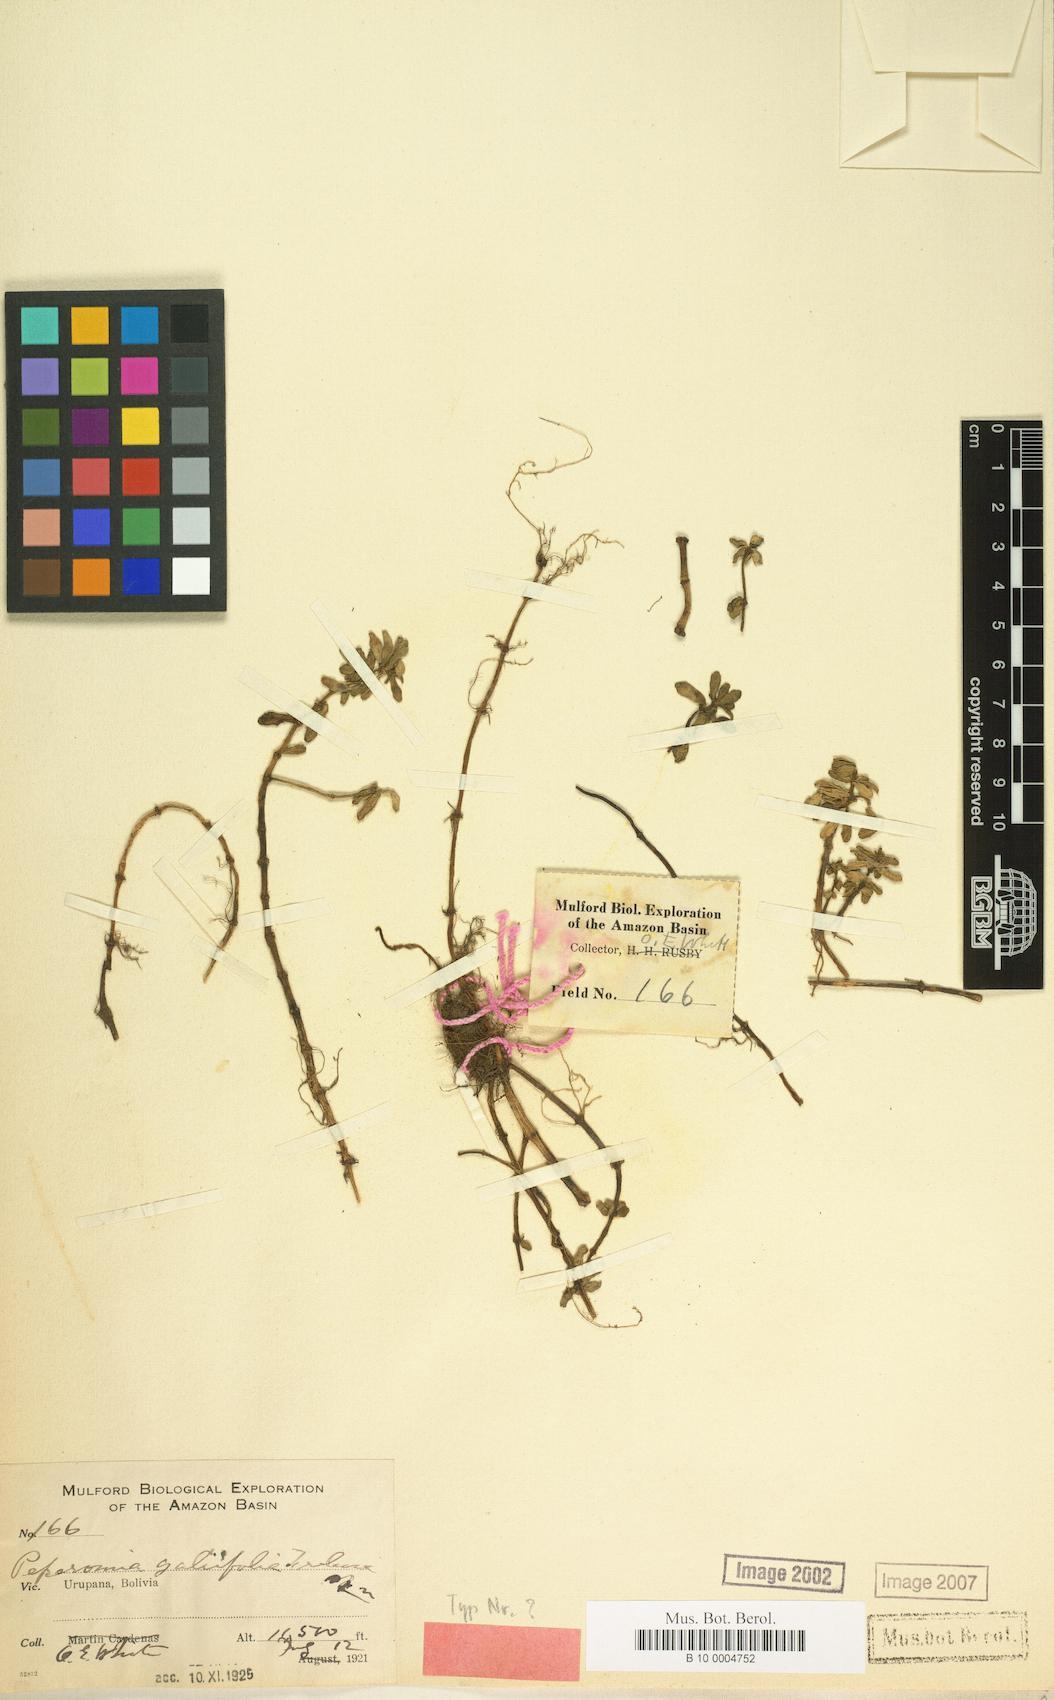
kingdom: Plantae
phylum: Tracheophyta
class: Magnoliopsida
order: Piperales
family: Piperaceae
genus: Peperomia
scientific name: Peperomia galioides
